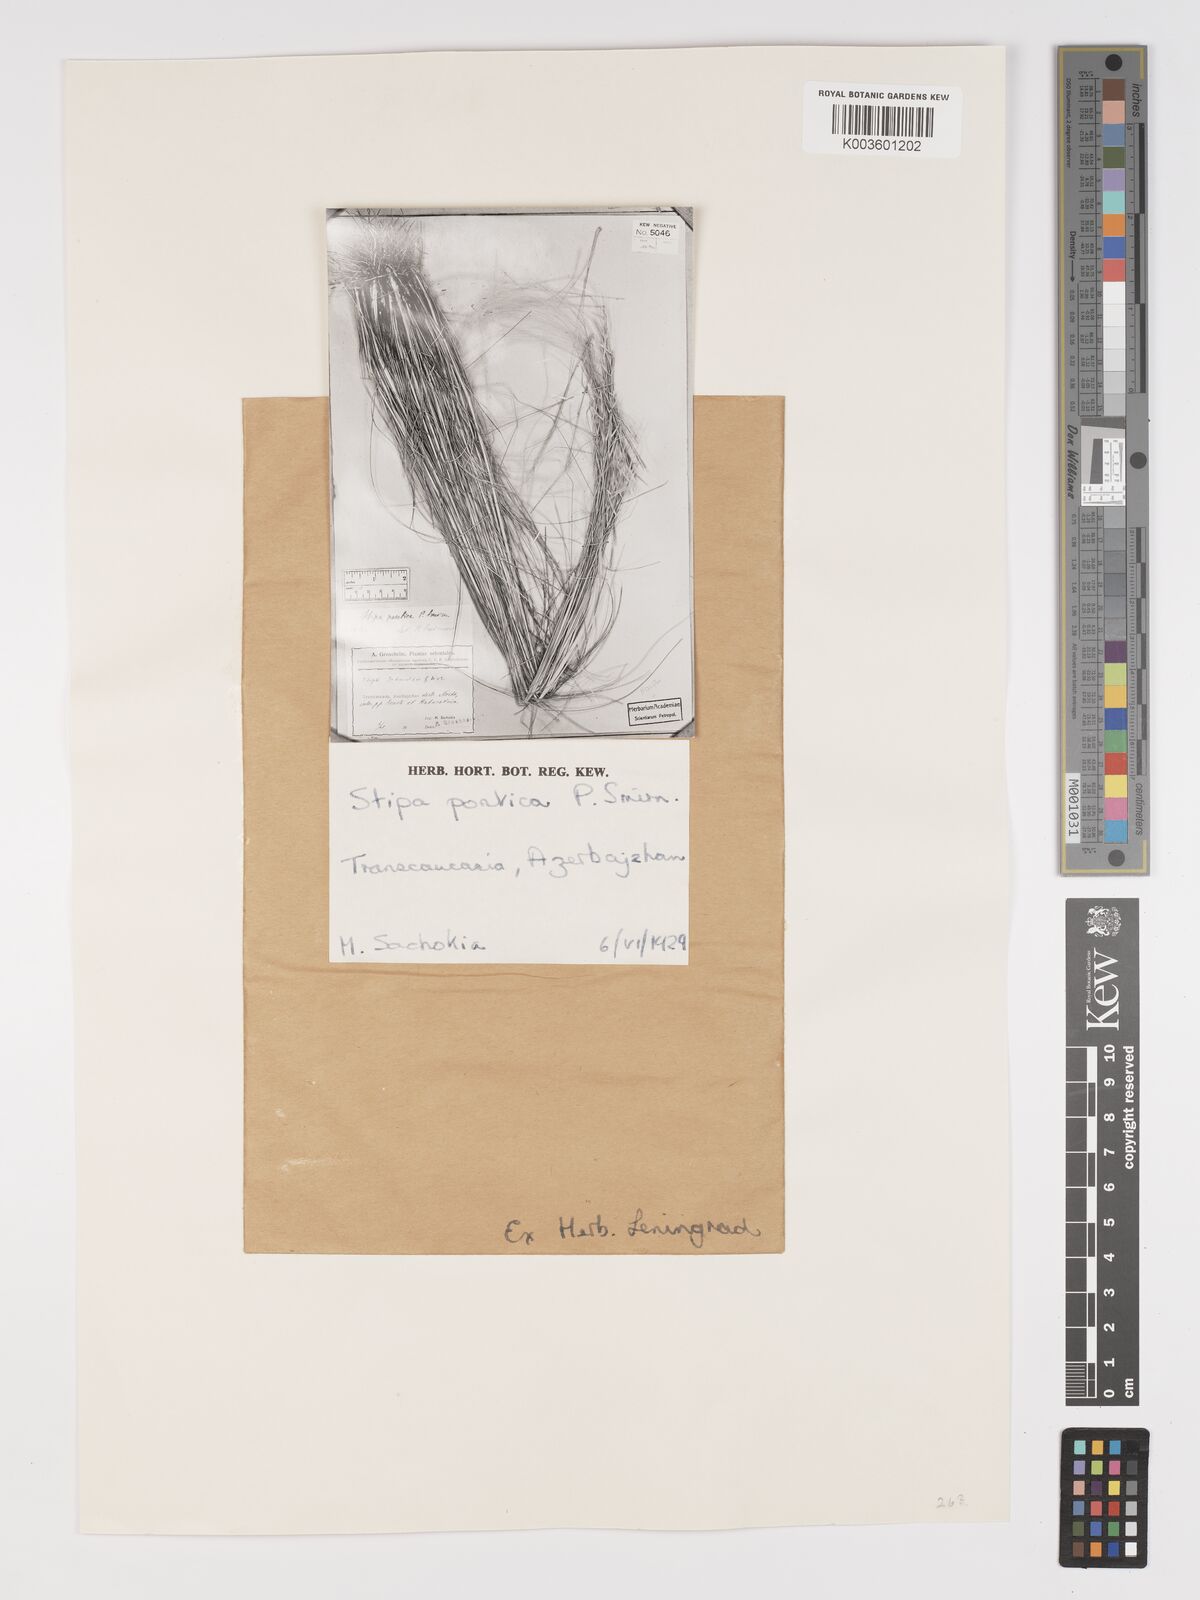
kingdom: Plantae
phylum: Tracheophyta
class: Liliopsida
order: Poales
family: Poaceae
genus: Stipa
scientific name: Stipa
